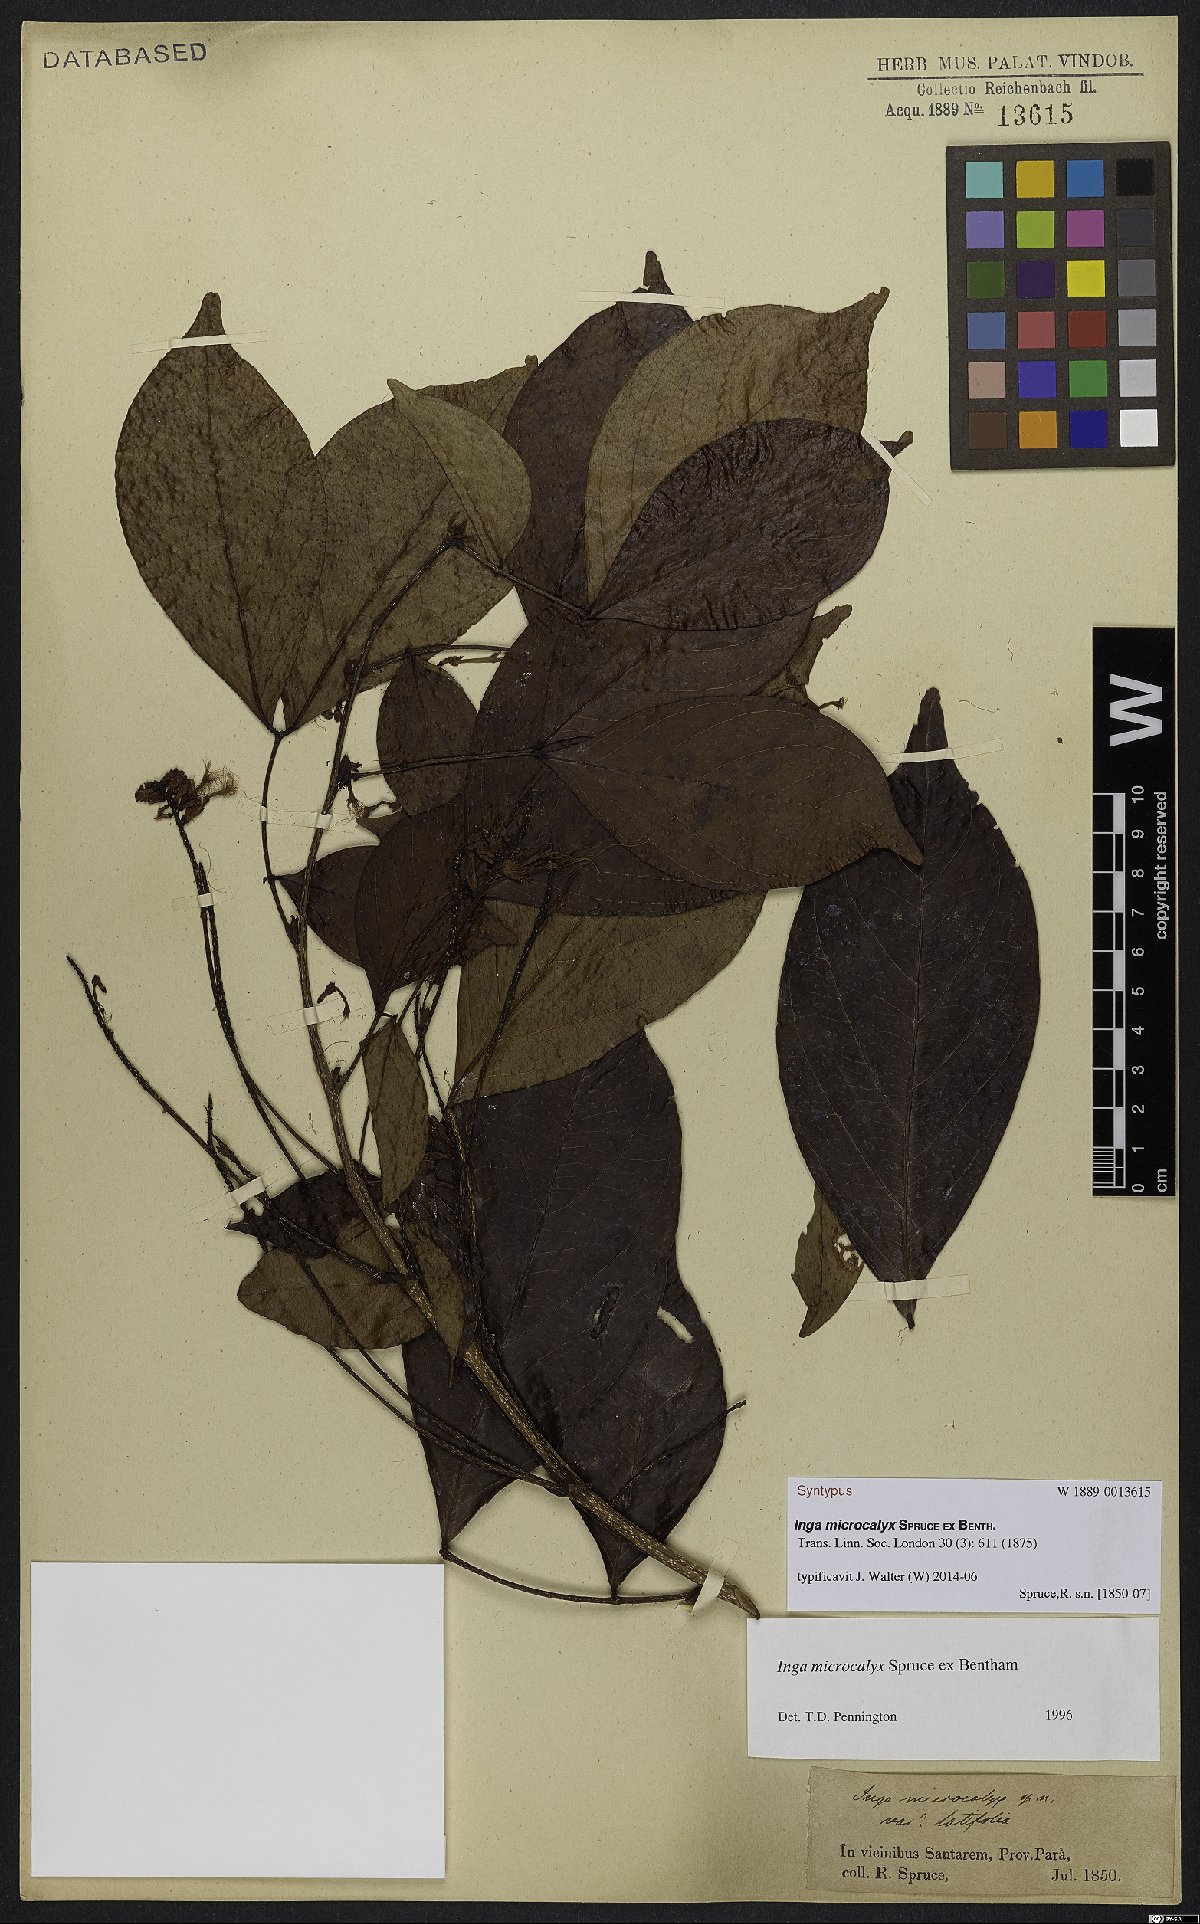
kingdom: Plantae
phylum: Tracheophyta
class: Magnoliopsida
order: Fabales
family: Fabaceae
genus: Inga
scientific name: Inga microcalyx
